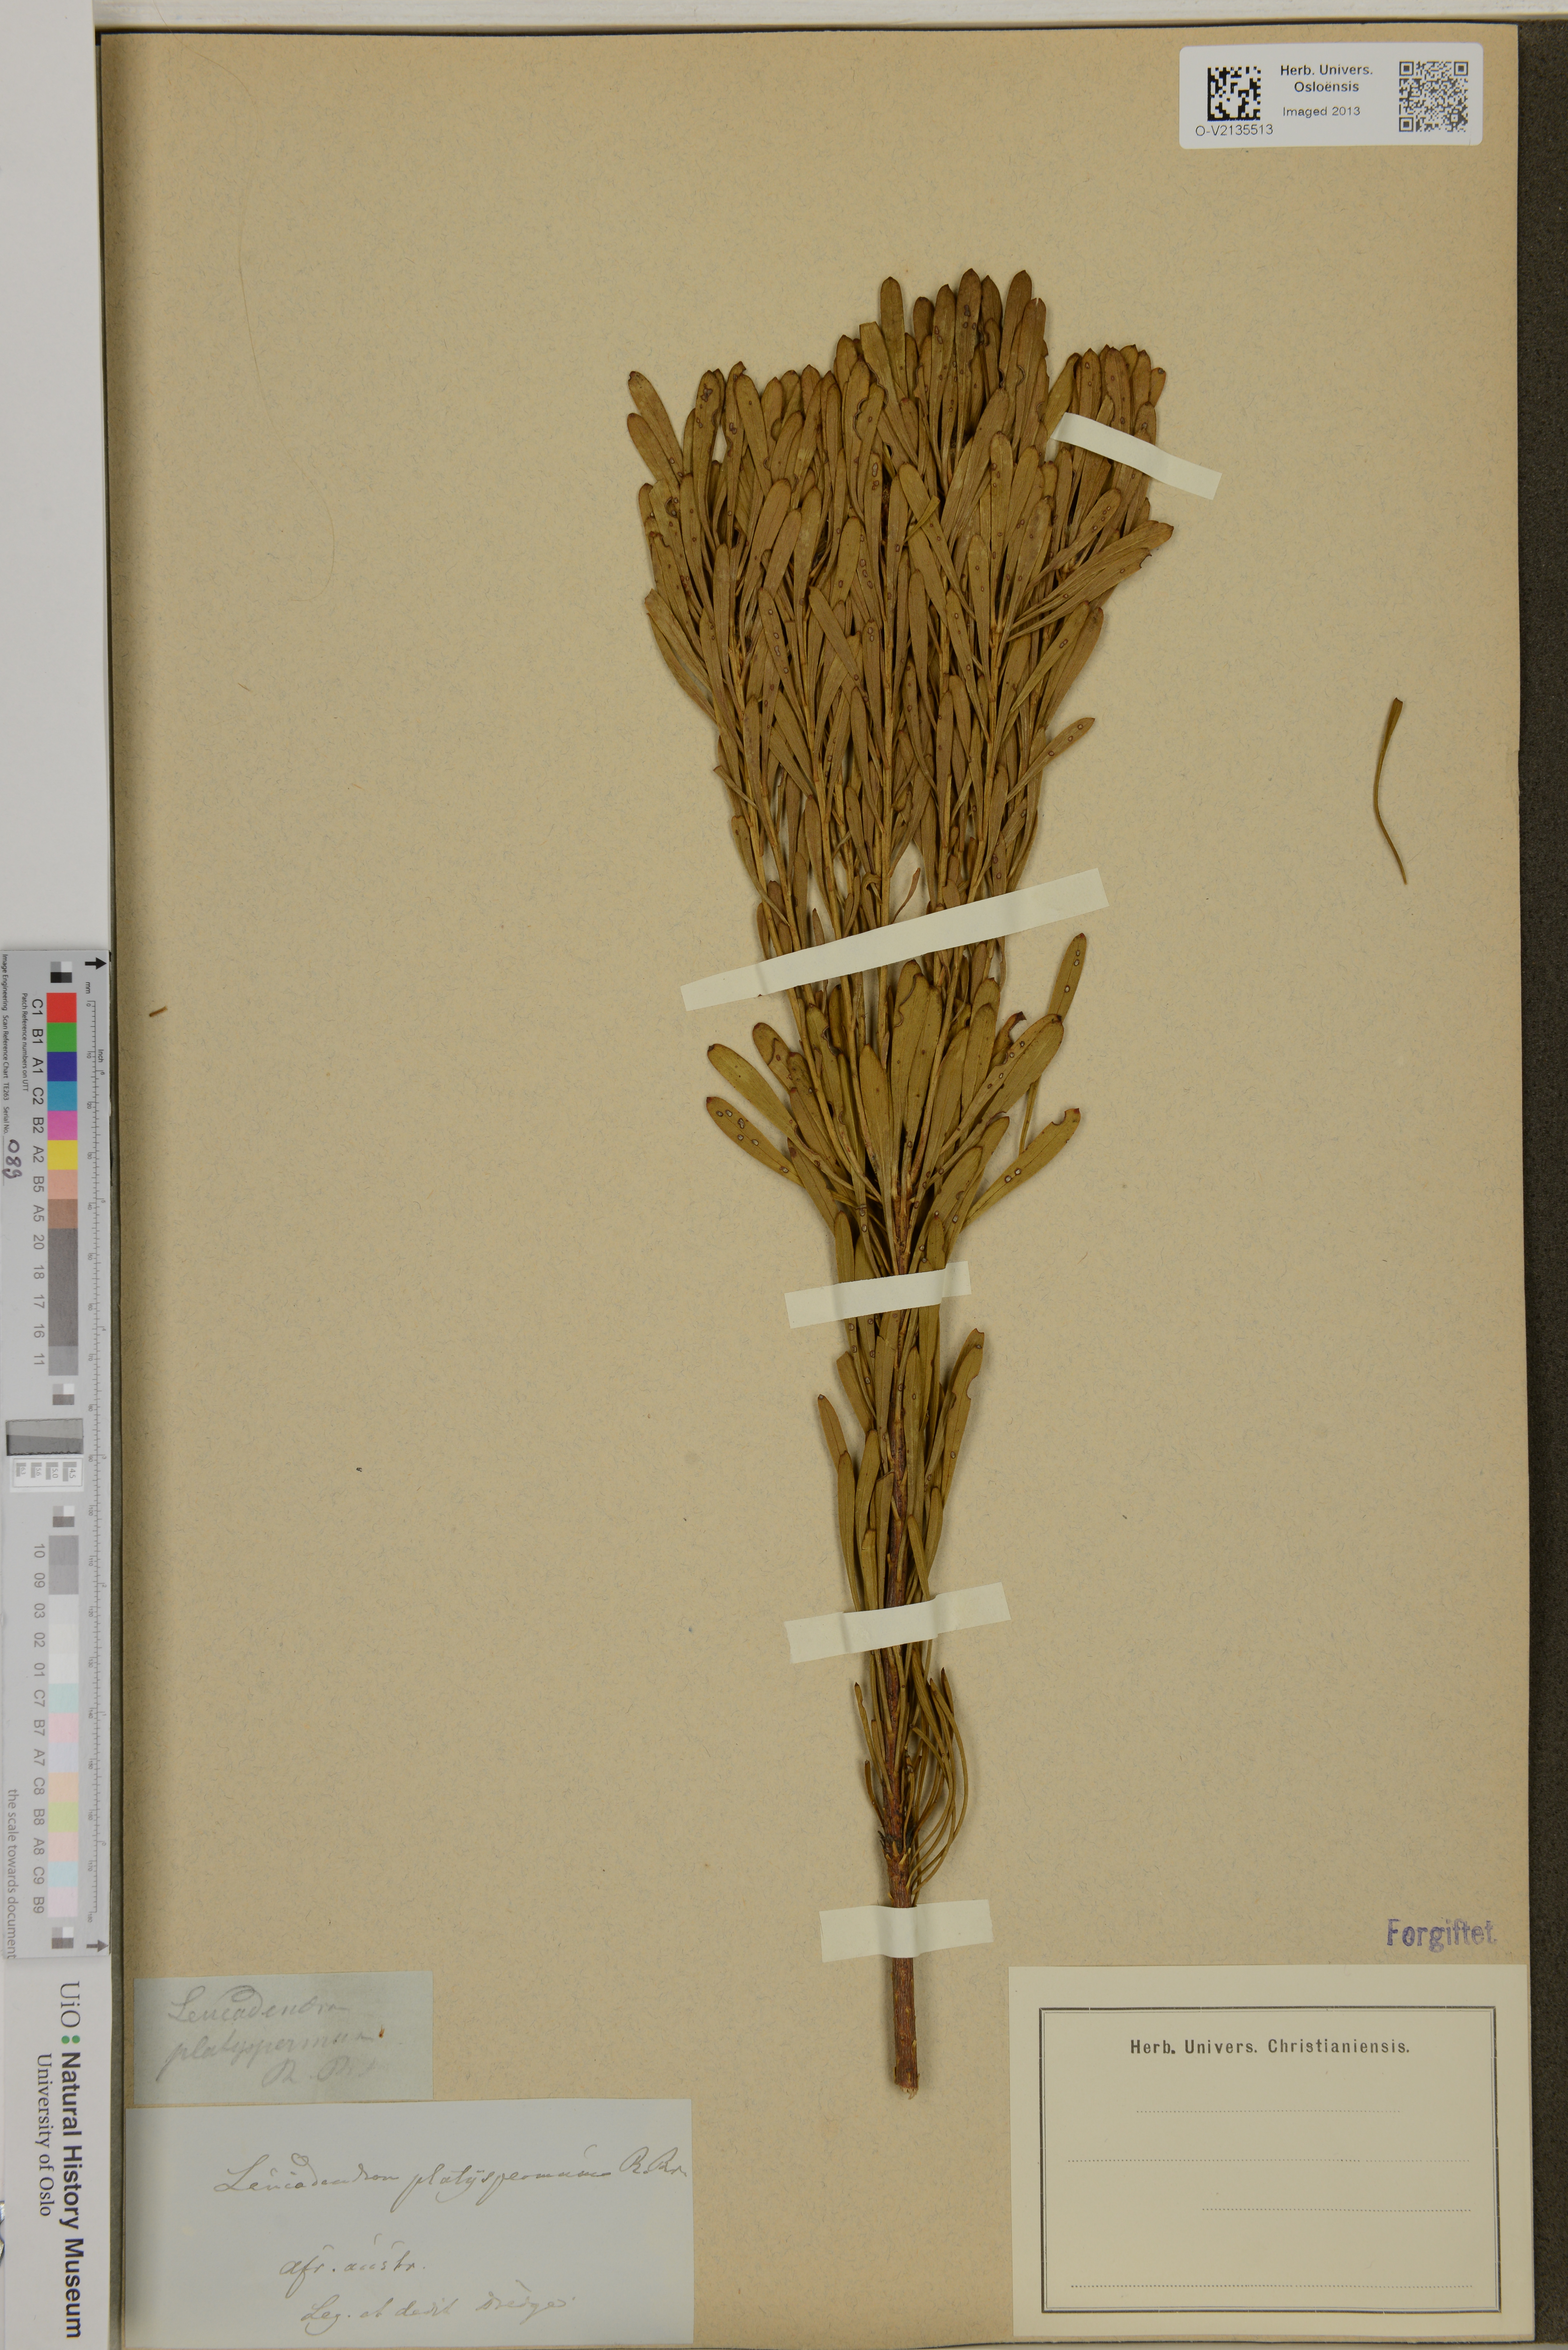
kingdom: Plantae
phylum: Tracheophyta
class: Magnoliopsida
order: Proteales
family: Proteaceae
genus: Leucadendron
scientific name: Leucadendron platyspermum
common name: Plate-seed conebush
